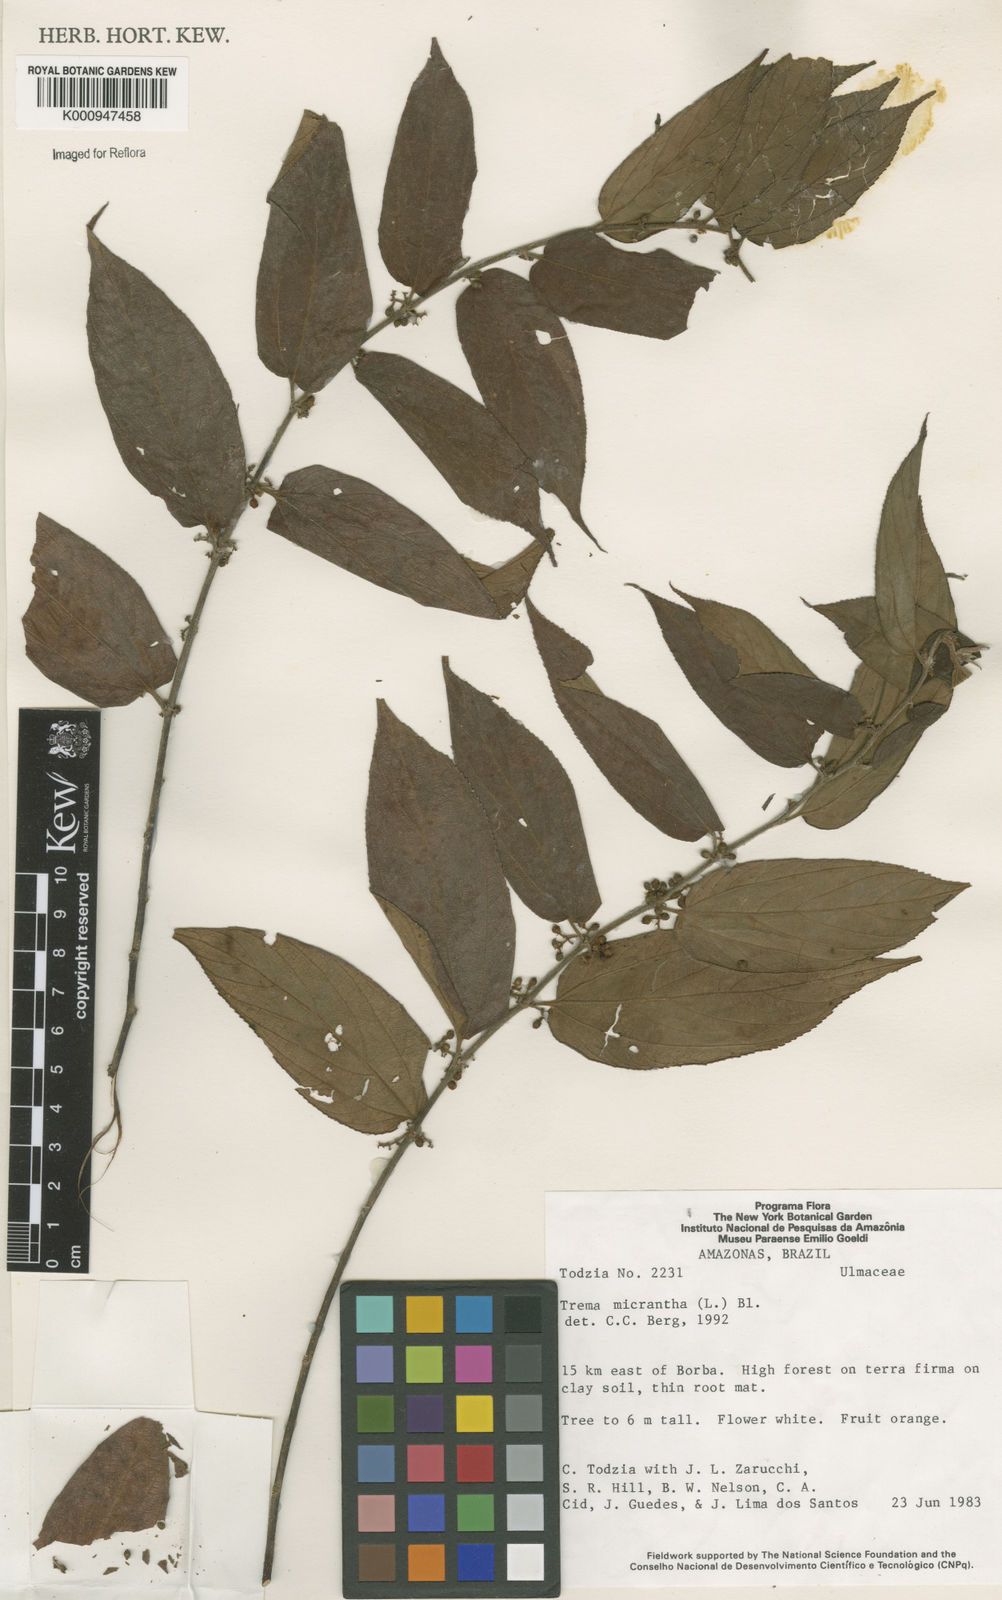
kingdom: Plantae
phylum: Tracheophyta
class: Magnoliopsida
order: Rosales
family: Cannabaceae
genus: Trema
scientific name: Trema micranthum
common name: Jamaican nettletree
